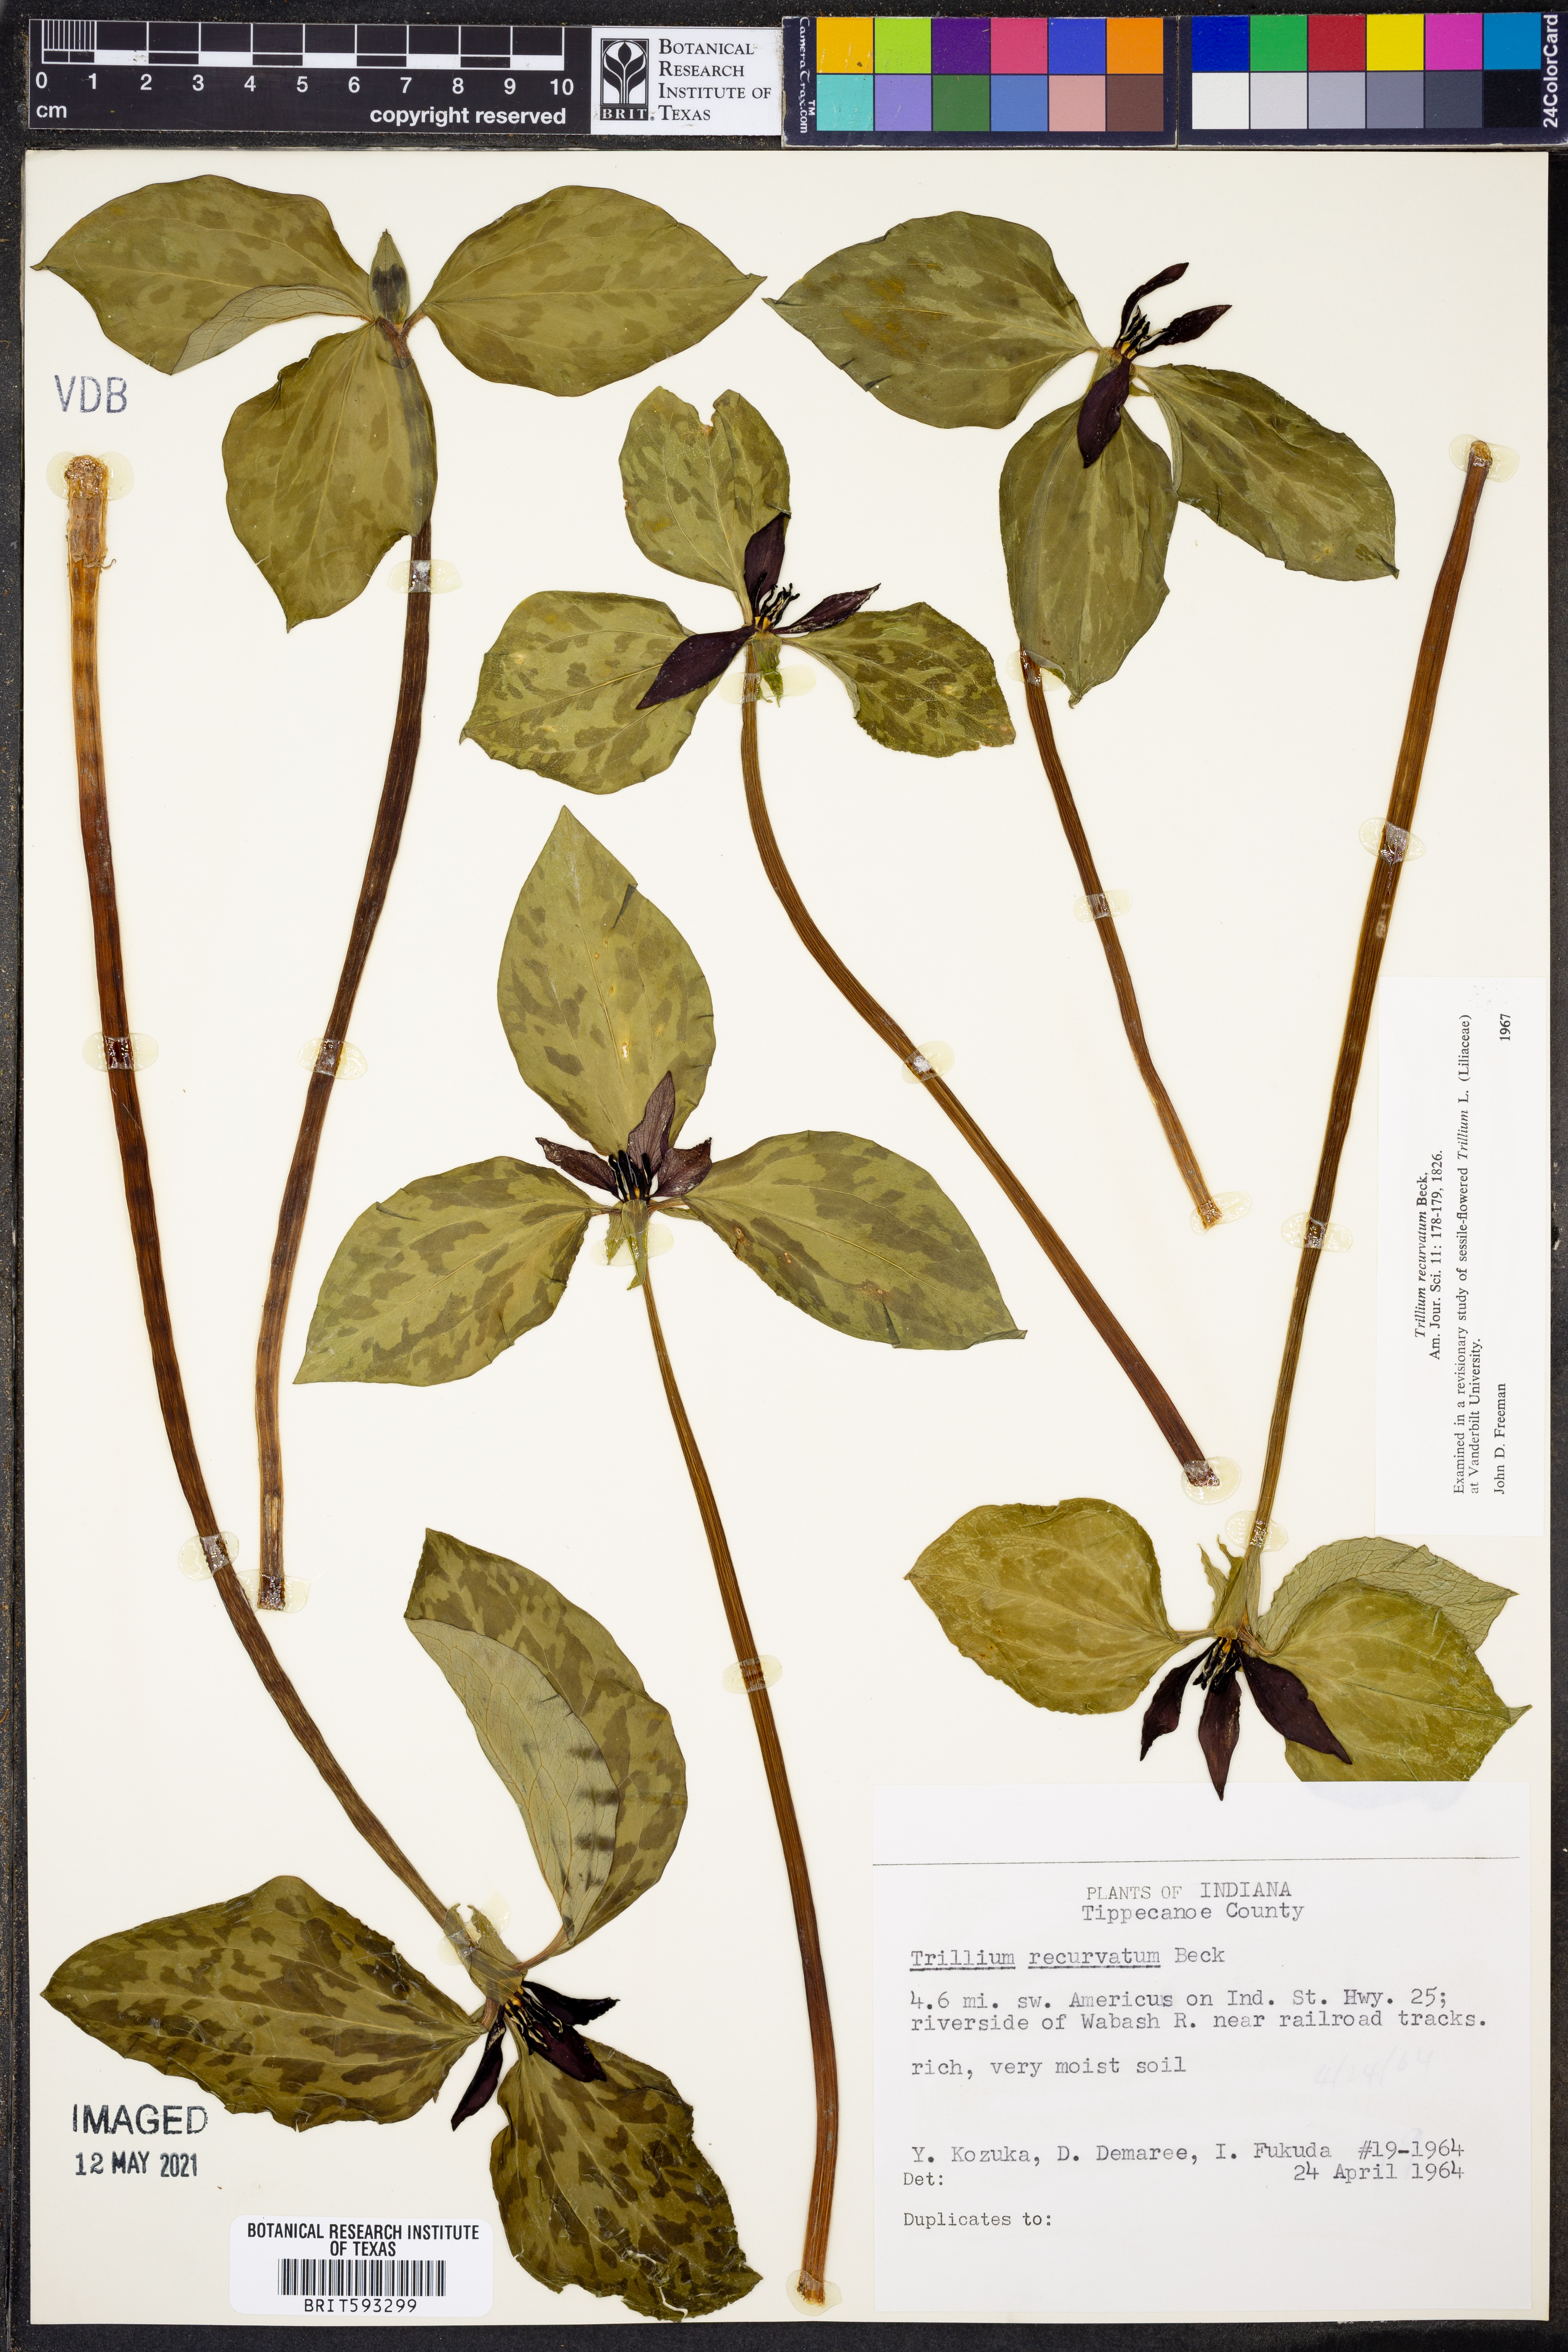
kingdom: Plantae
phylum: Tracheophyta
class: Liliopsida
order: Liliales
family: Melanthiaceae
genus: Trillium
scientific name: Trillium recurvatum
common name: Bloody butcher
